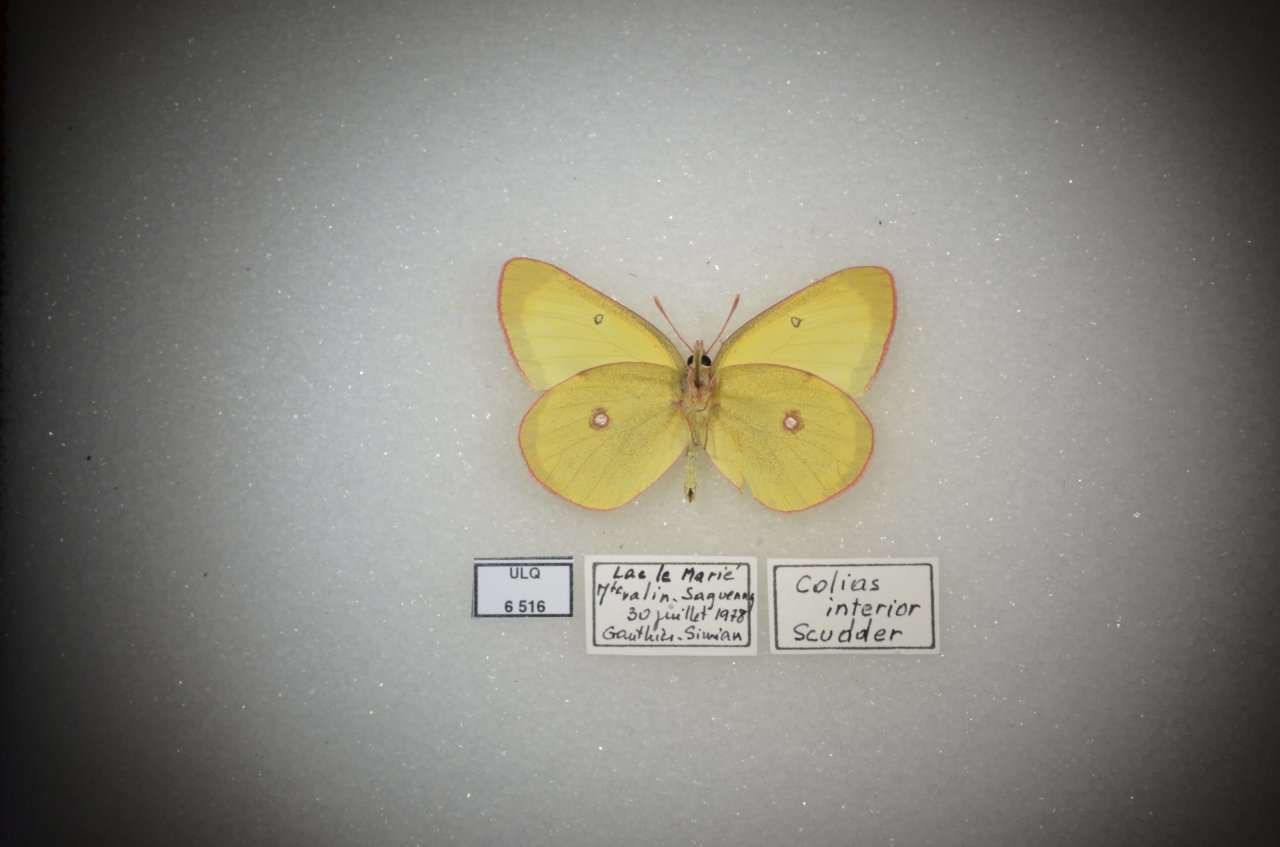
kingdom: Animalia
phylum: Arthropoda
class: Insecta
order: Lepidoptera
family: Pieridae
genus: Colias
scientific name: Colias interior
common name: Pink-edged Sulphur
